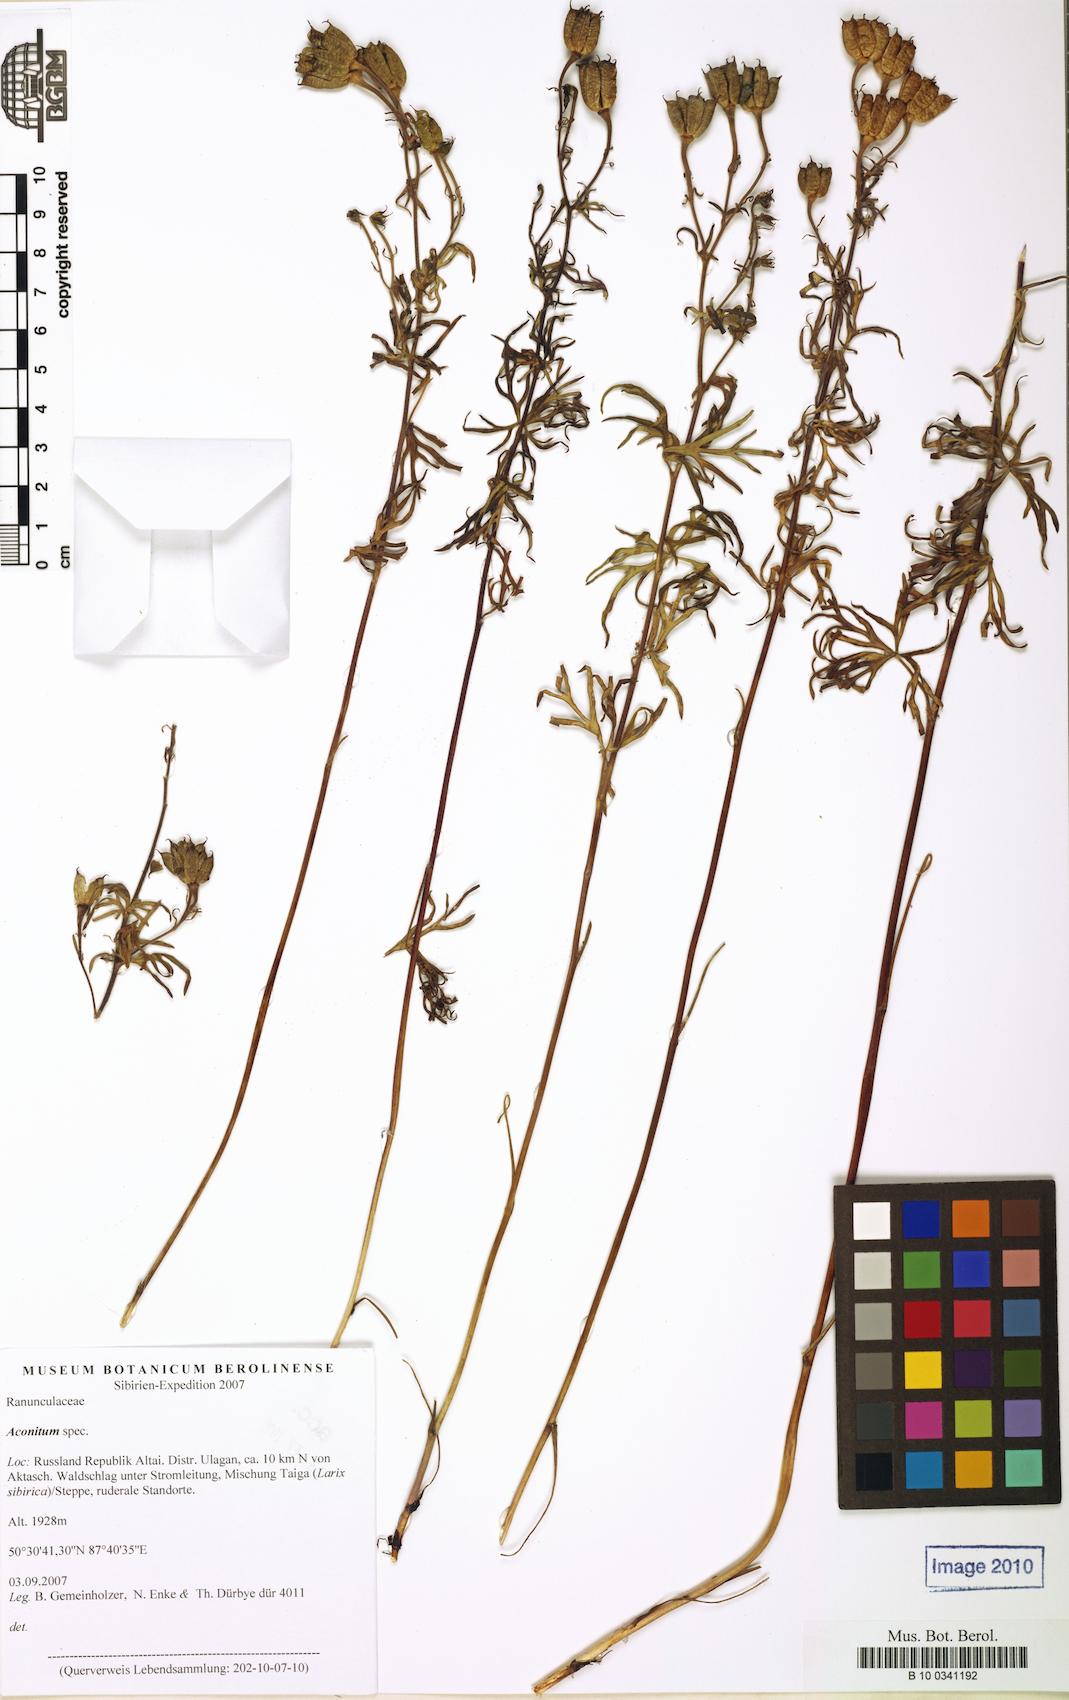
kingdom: Plantae
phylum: Tracheophyta
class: Magnoliopsida
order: Ranunculales
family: Ranunculaceae
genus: Aconitum
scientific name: Aconitum
